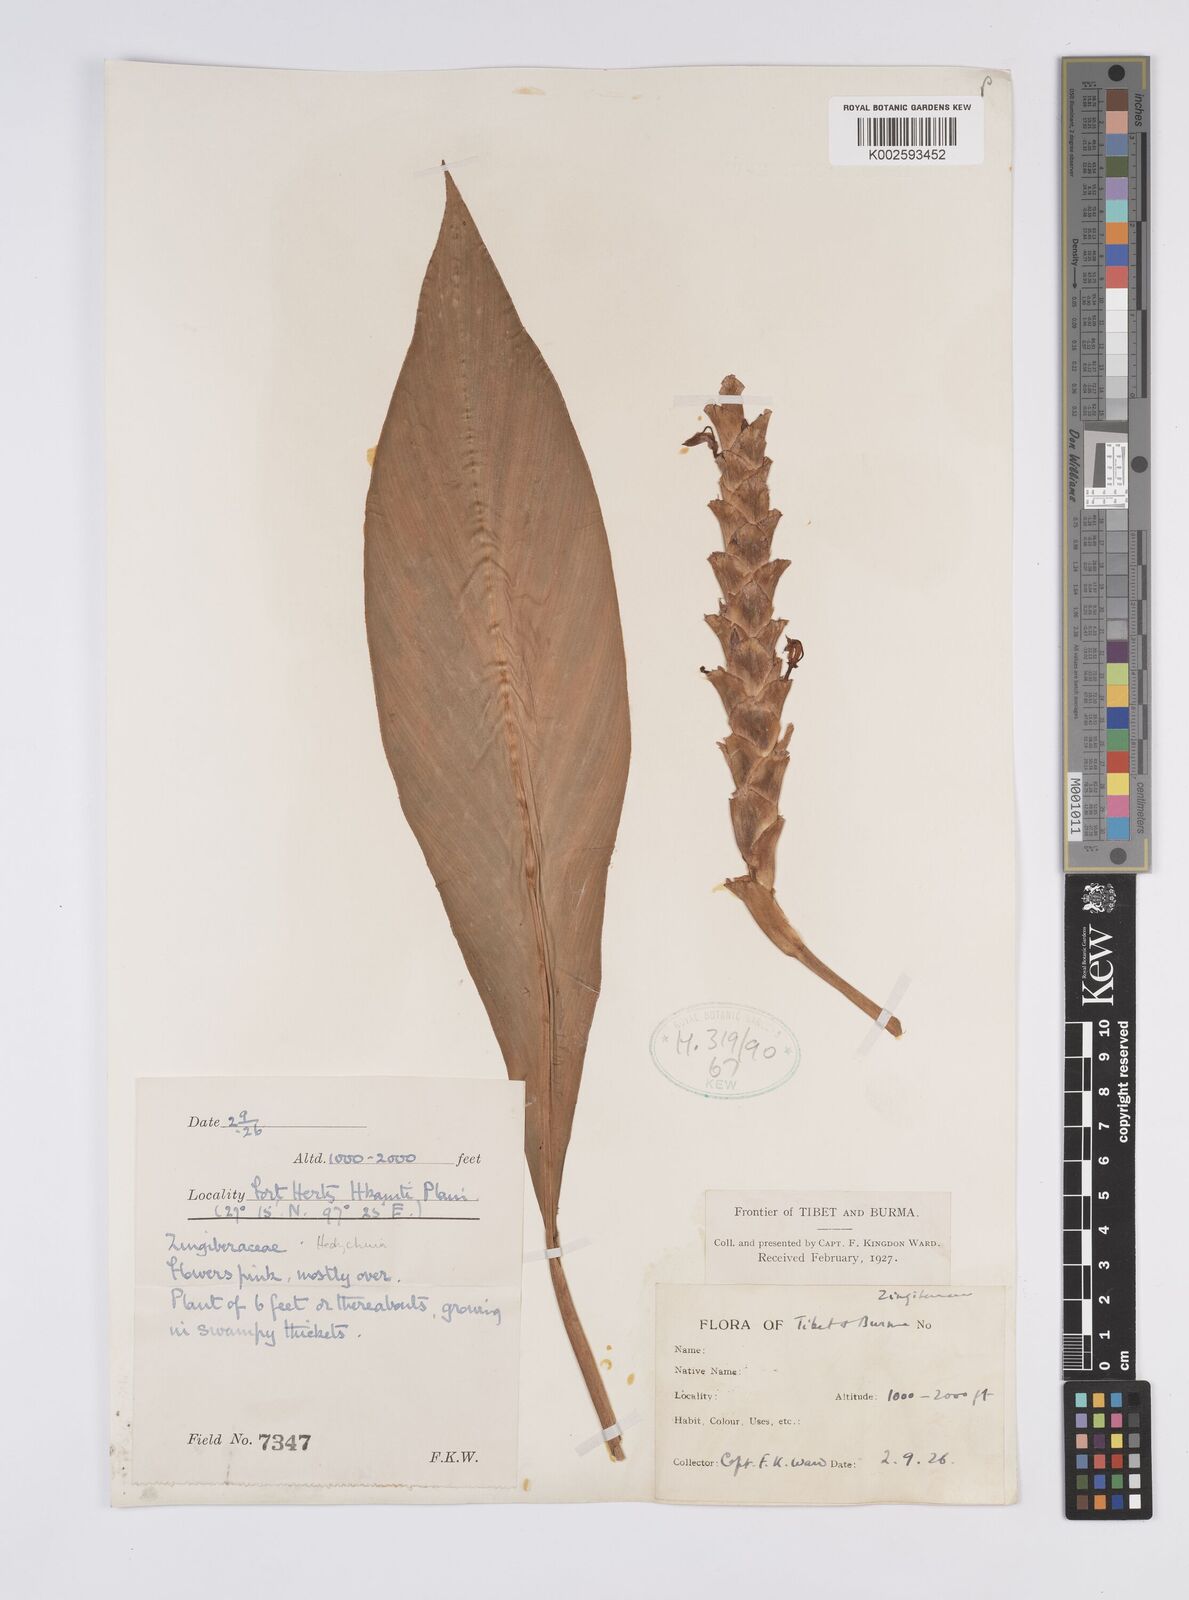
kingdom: Plantae
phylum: Tracheophyta
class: Liliopsida
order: Zingiberales
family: Zingiberaceae
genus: Larsenianthus
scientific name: Larsenianthus careyanus
